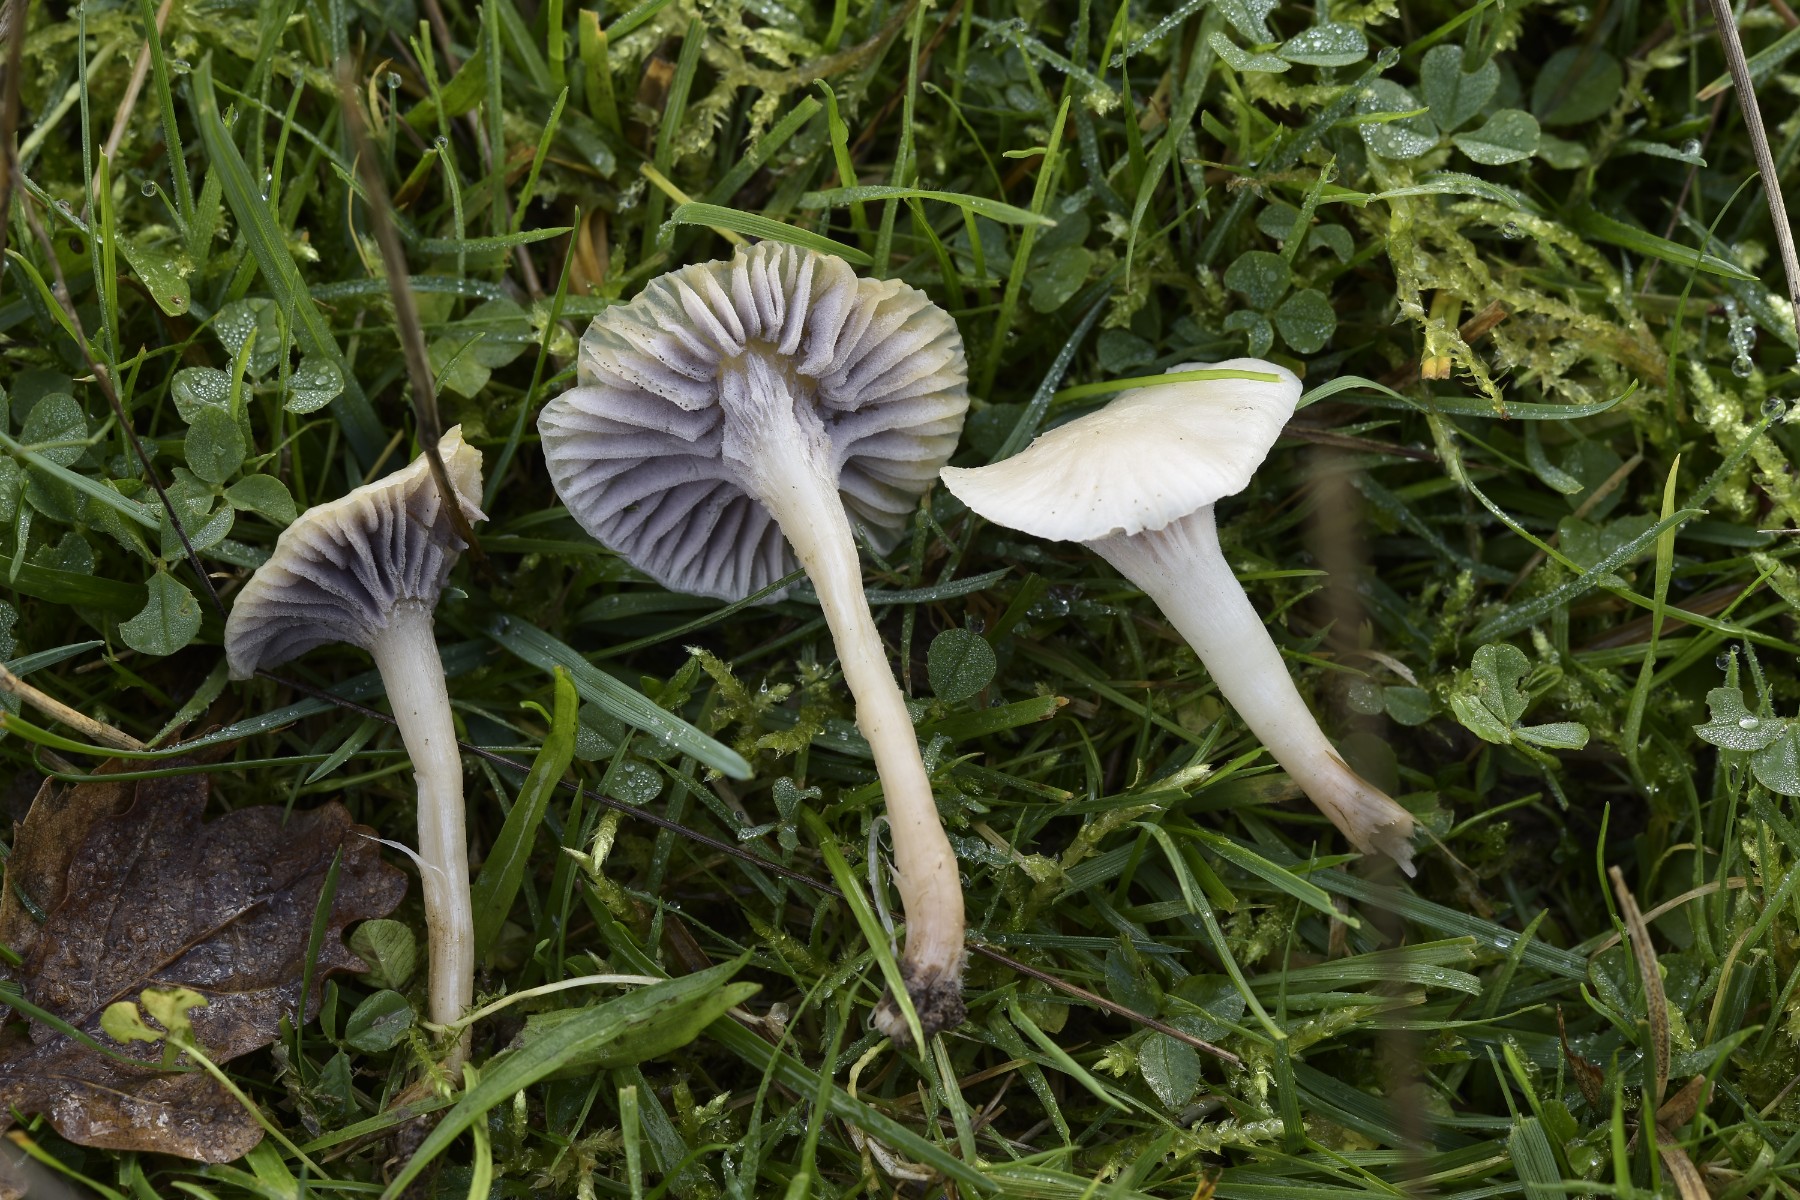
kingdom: Fungi
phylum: Ascomycota
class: Sordariomycetes
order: Hypocreales
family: Clavicipitaceae
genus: Marquandomyces
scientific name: Marquandomyces marquandii
